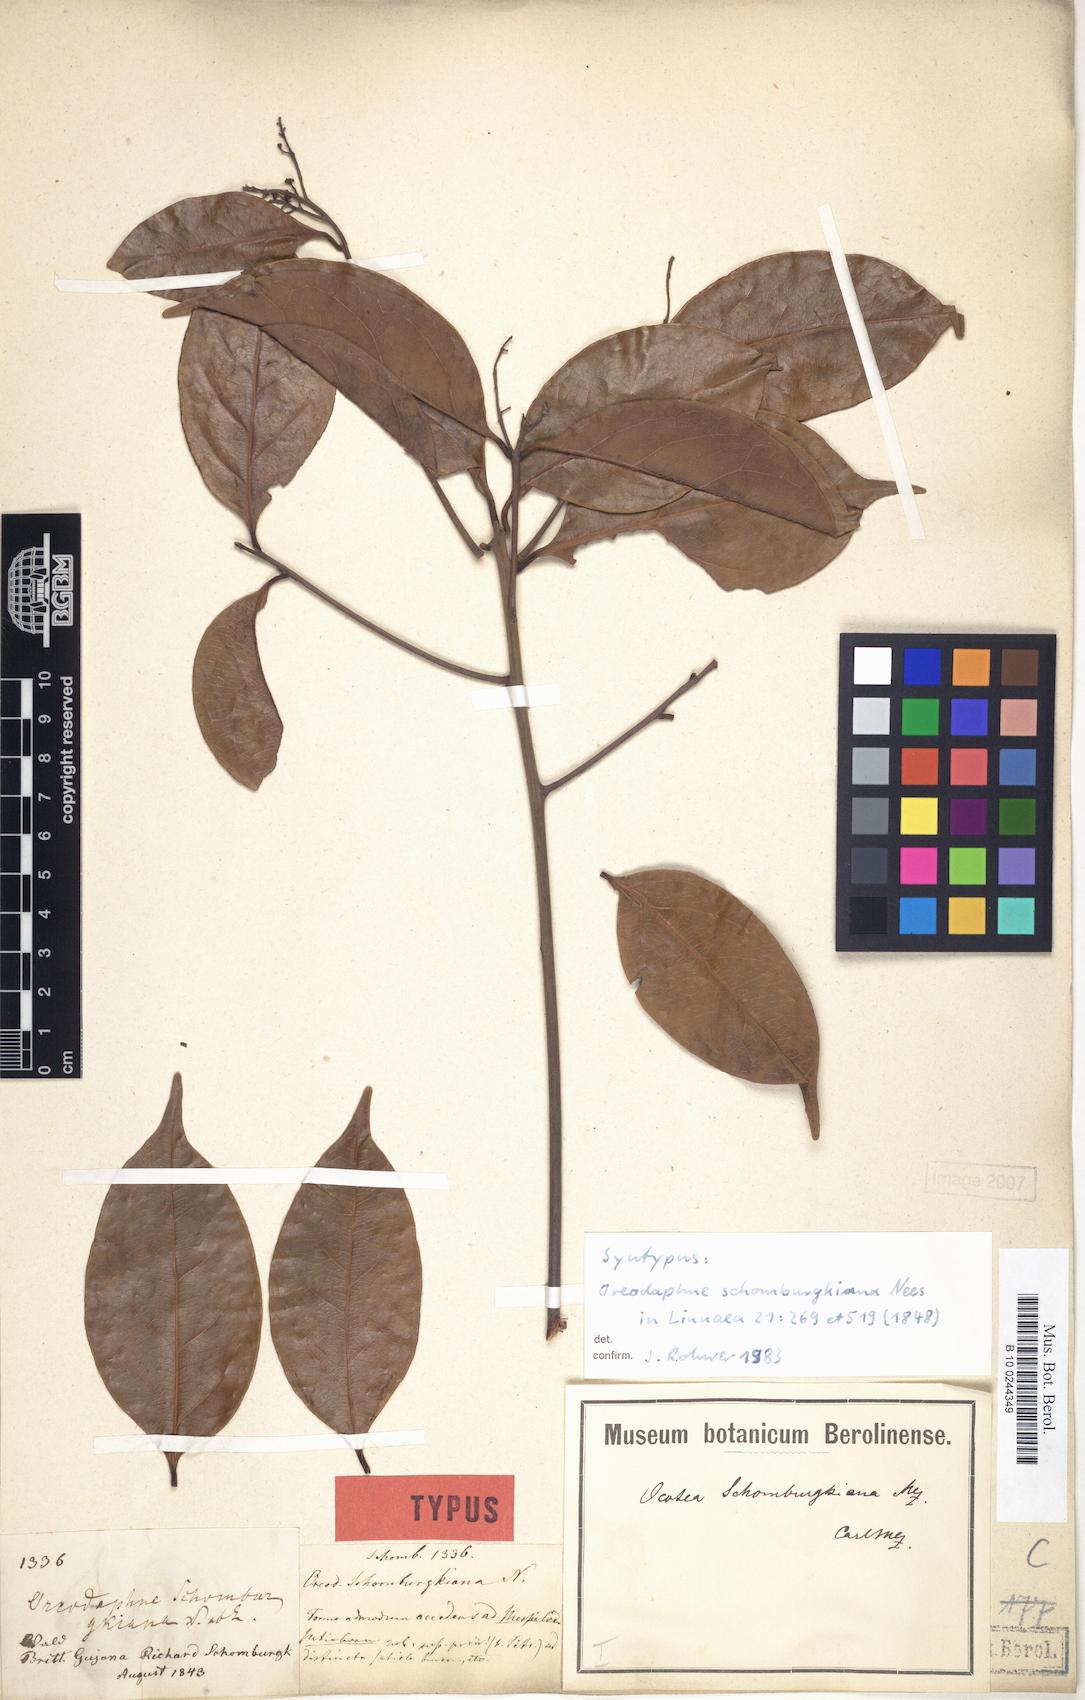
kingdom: Plantae
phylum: Tracheophyta
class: Magnoliopsida
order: Laurales
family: Lauraceae
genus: Ocotea
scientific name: Ocotea schomburgkiana
